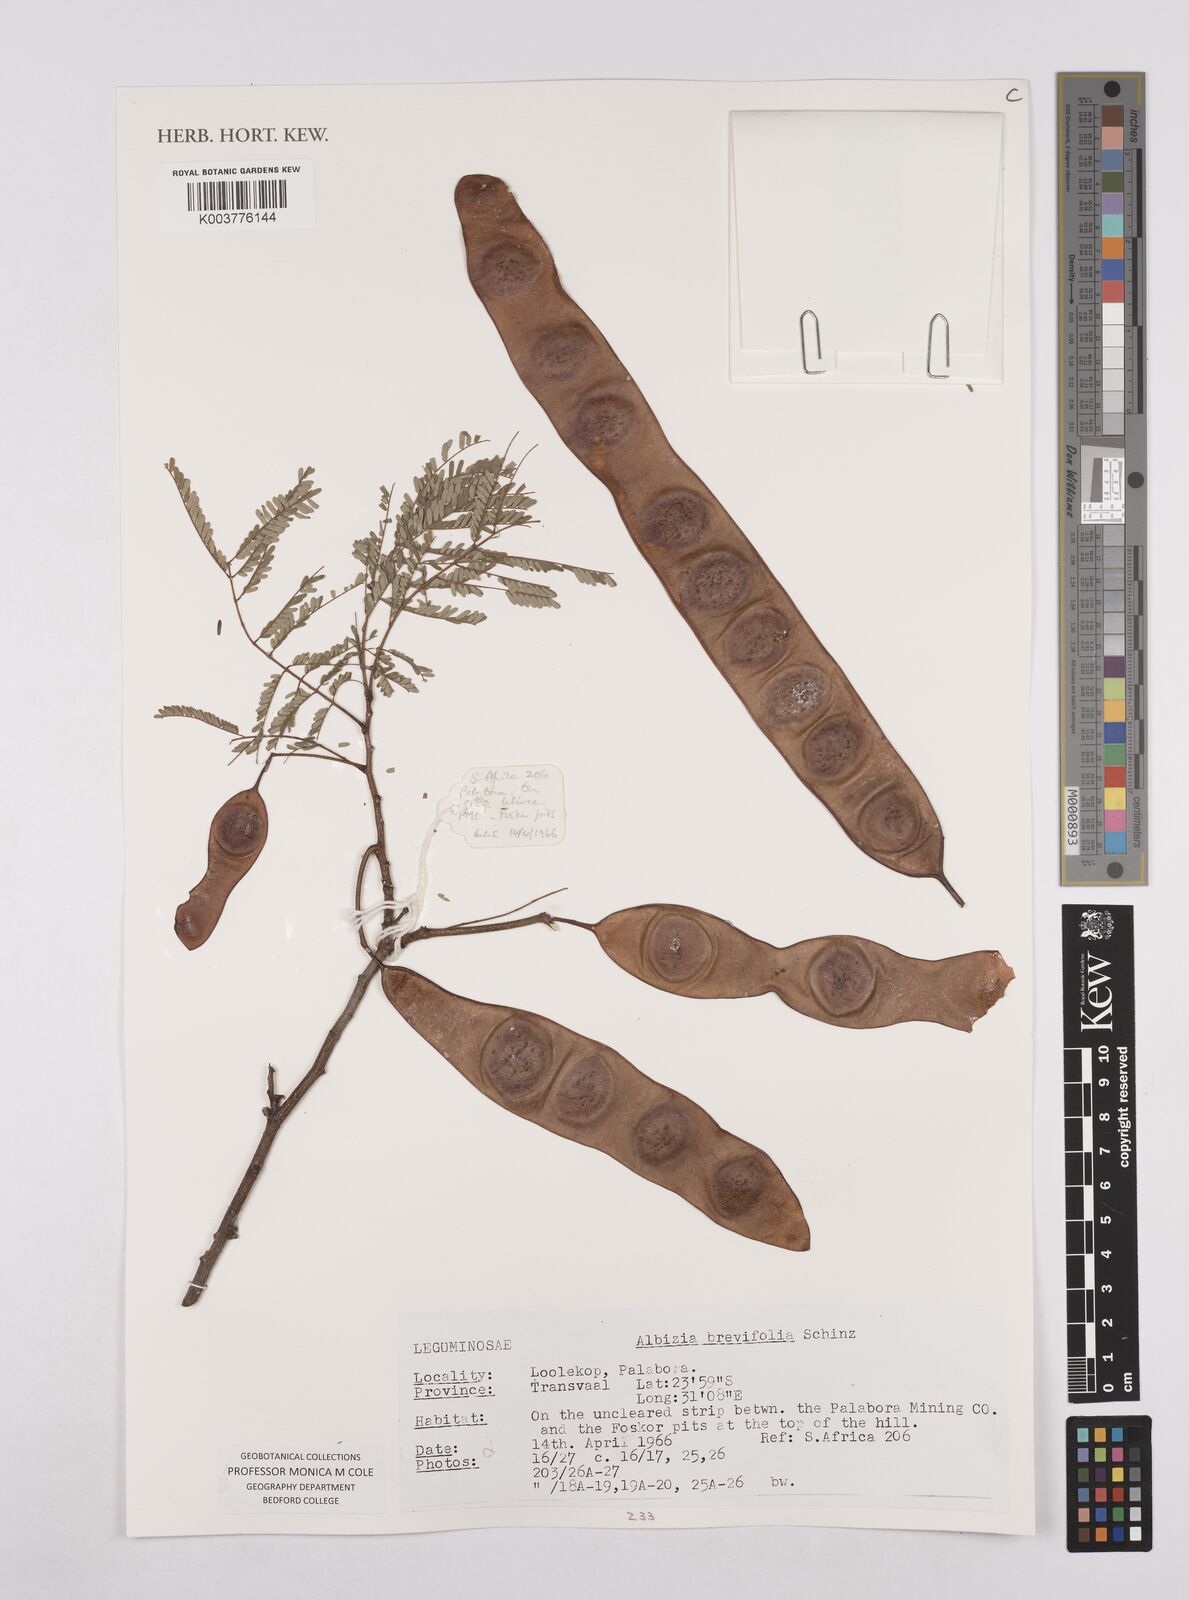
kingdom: Plantae
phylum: Tracheophyta
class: Magnoliopsida
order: Fabales
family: Fabaceae
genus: Albizia
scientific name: Albizia brevifolia
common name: Rock false-thorn
